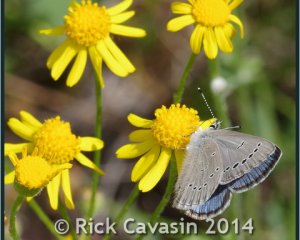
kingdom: Animalia
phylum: Arthropoda
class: Insecta
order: Lepidoptera
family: Lycaenidae
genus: Glaucopsyche
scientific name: Glaucopsyche lygdamus
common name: Silvery Blue
